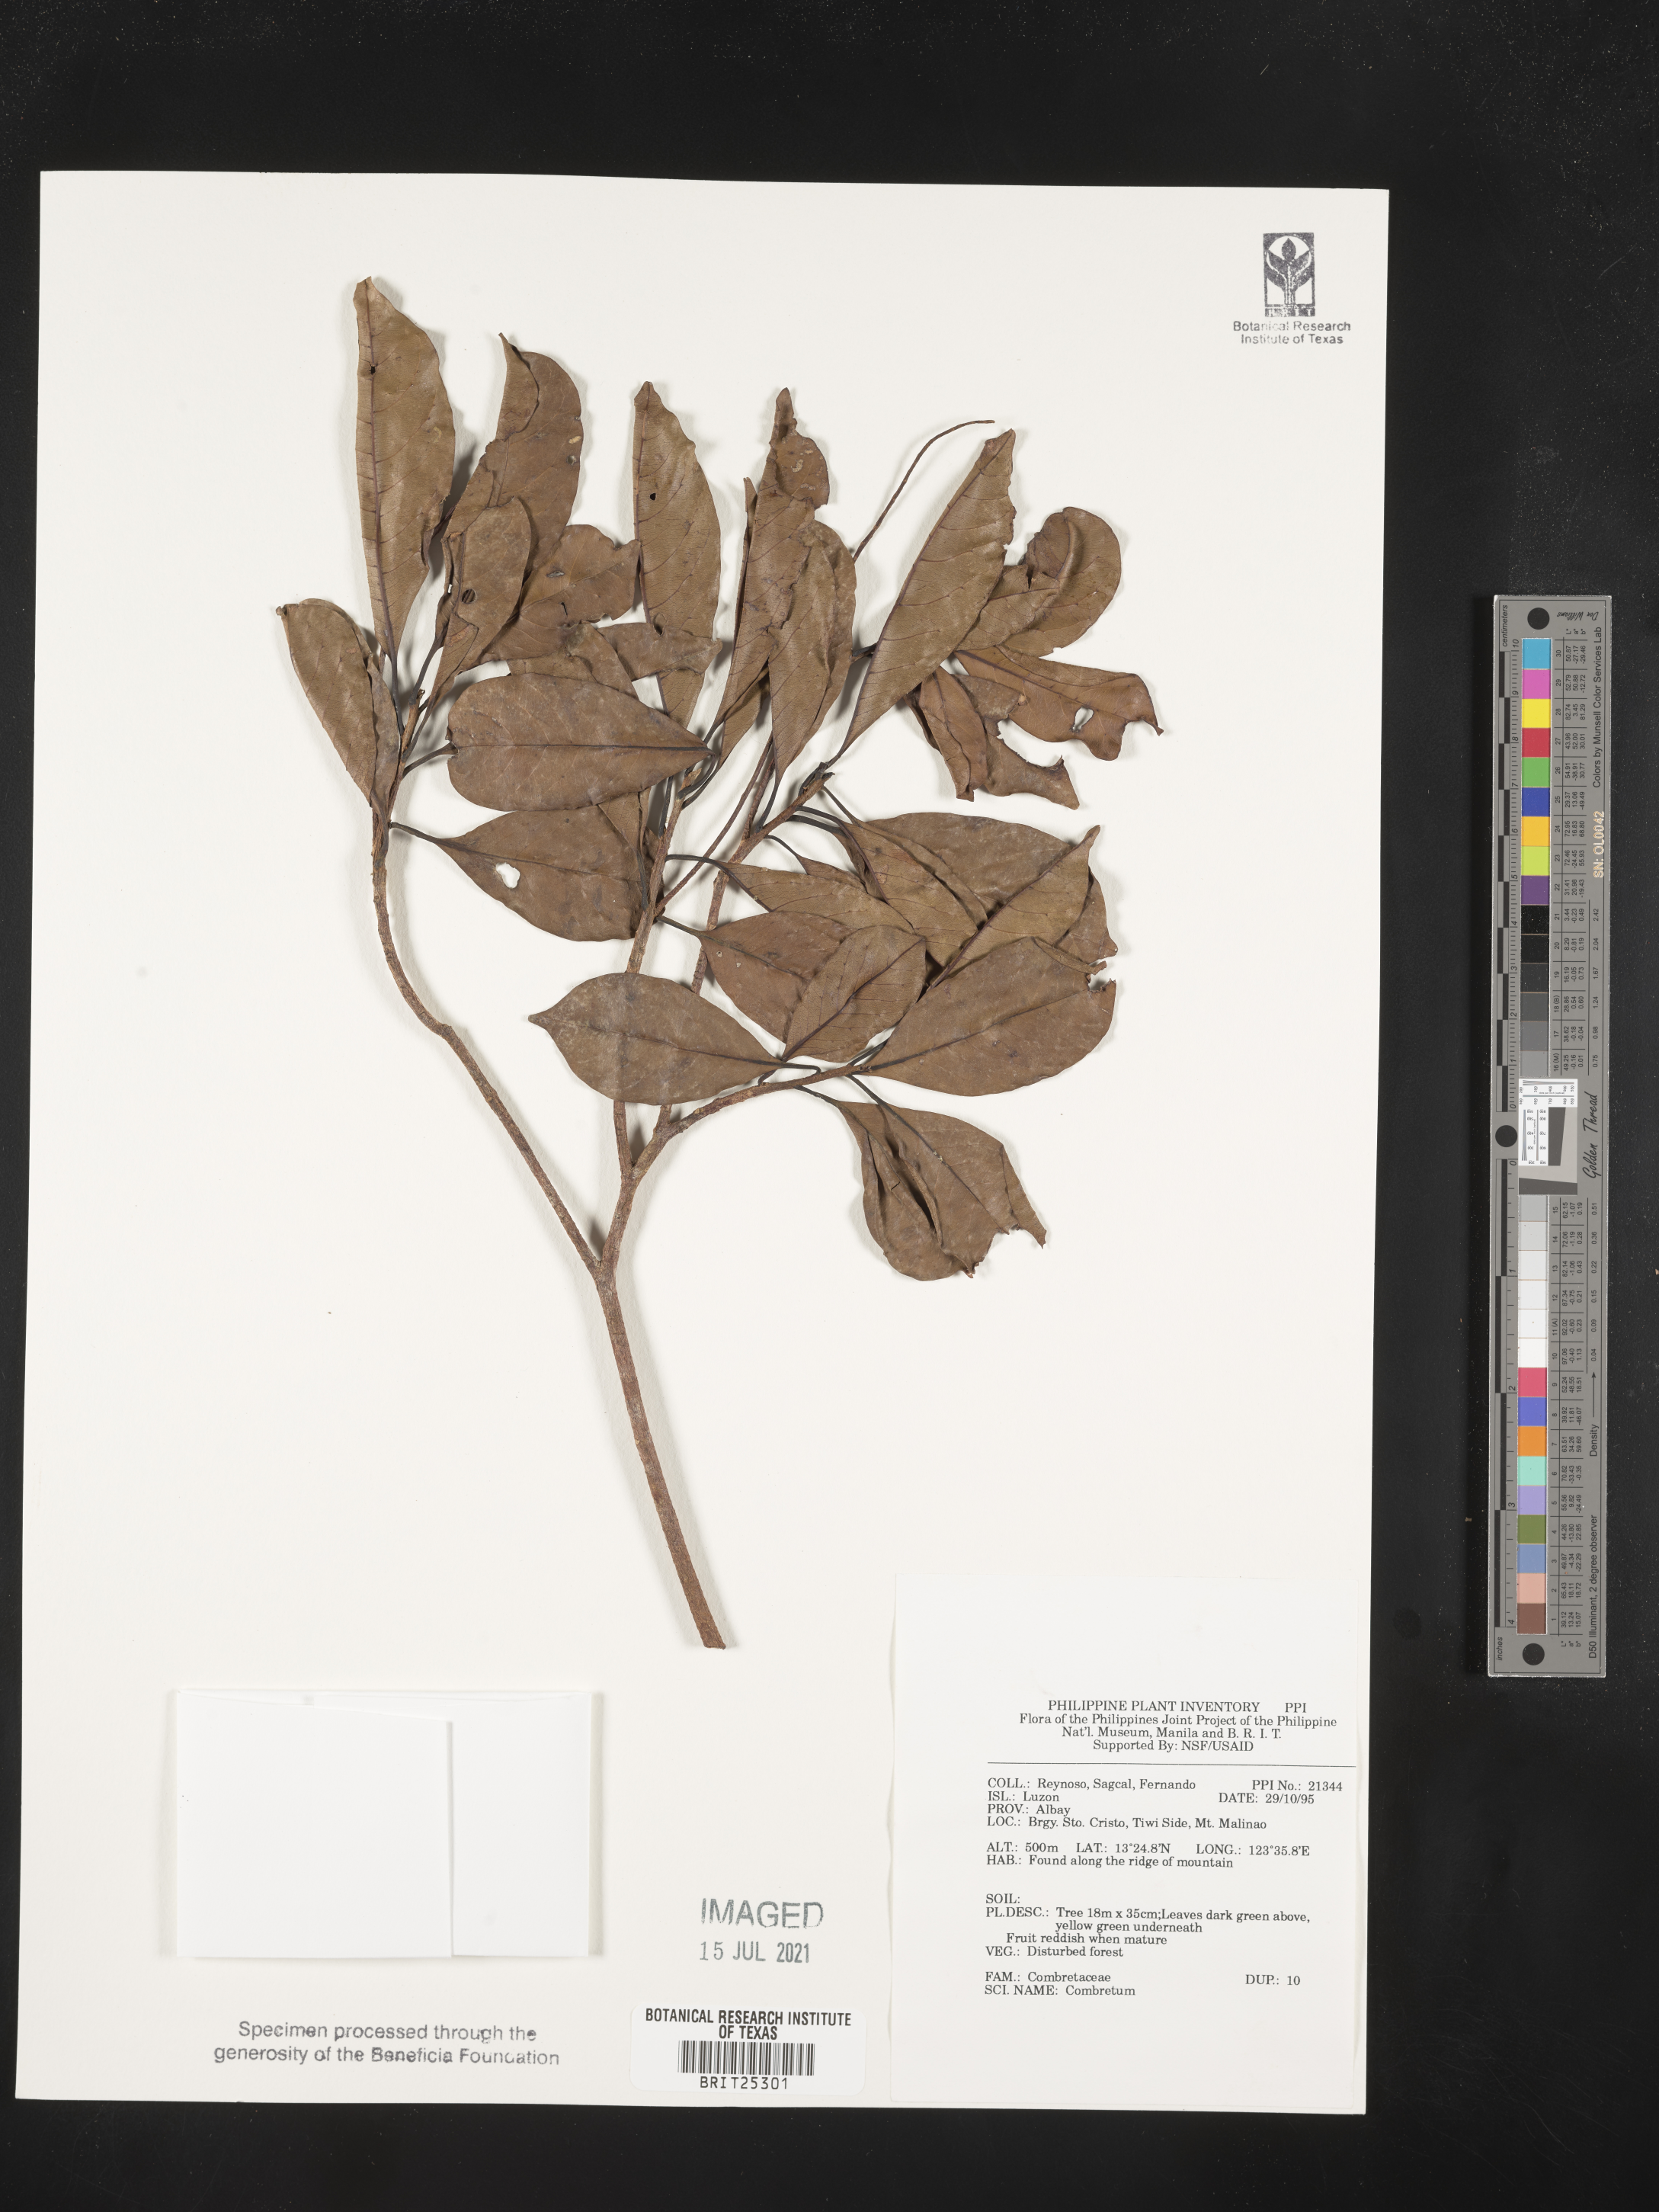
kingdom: Plantae
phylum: Tracheophyta
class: Magnoliopsida
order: Myrtales
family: Combretaceae
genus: Combretum
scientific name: Combretum
